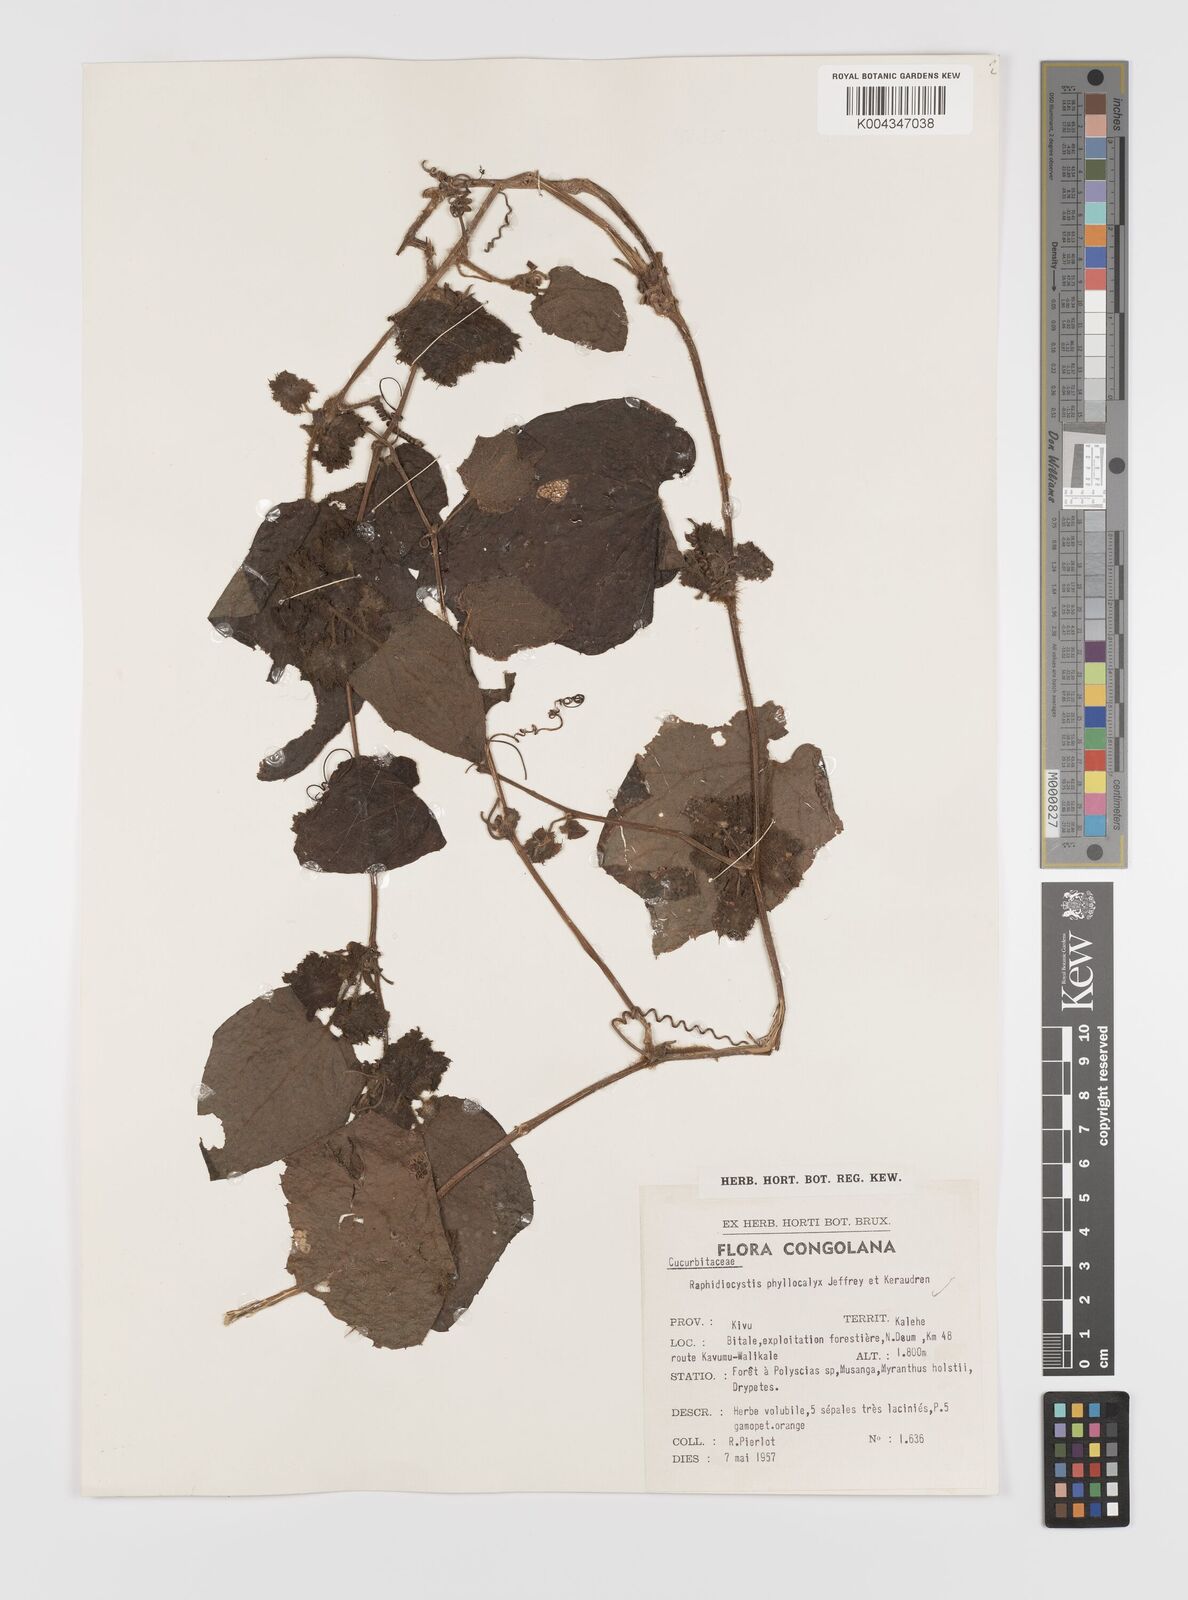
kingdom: Plantae
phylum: Tracheophyta
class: Magnoliopsida
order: Cucurbitales
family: Cucurbitaceae
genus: Raphidiocystis
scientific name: Raphidiocystis phyllocalyx
